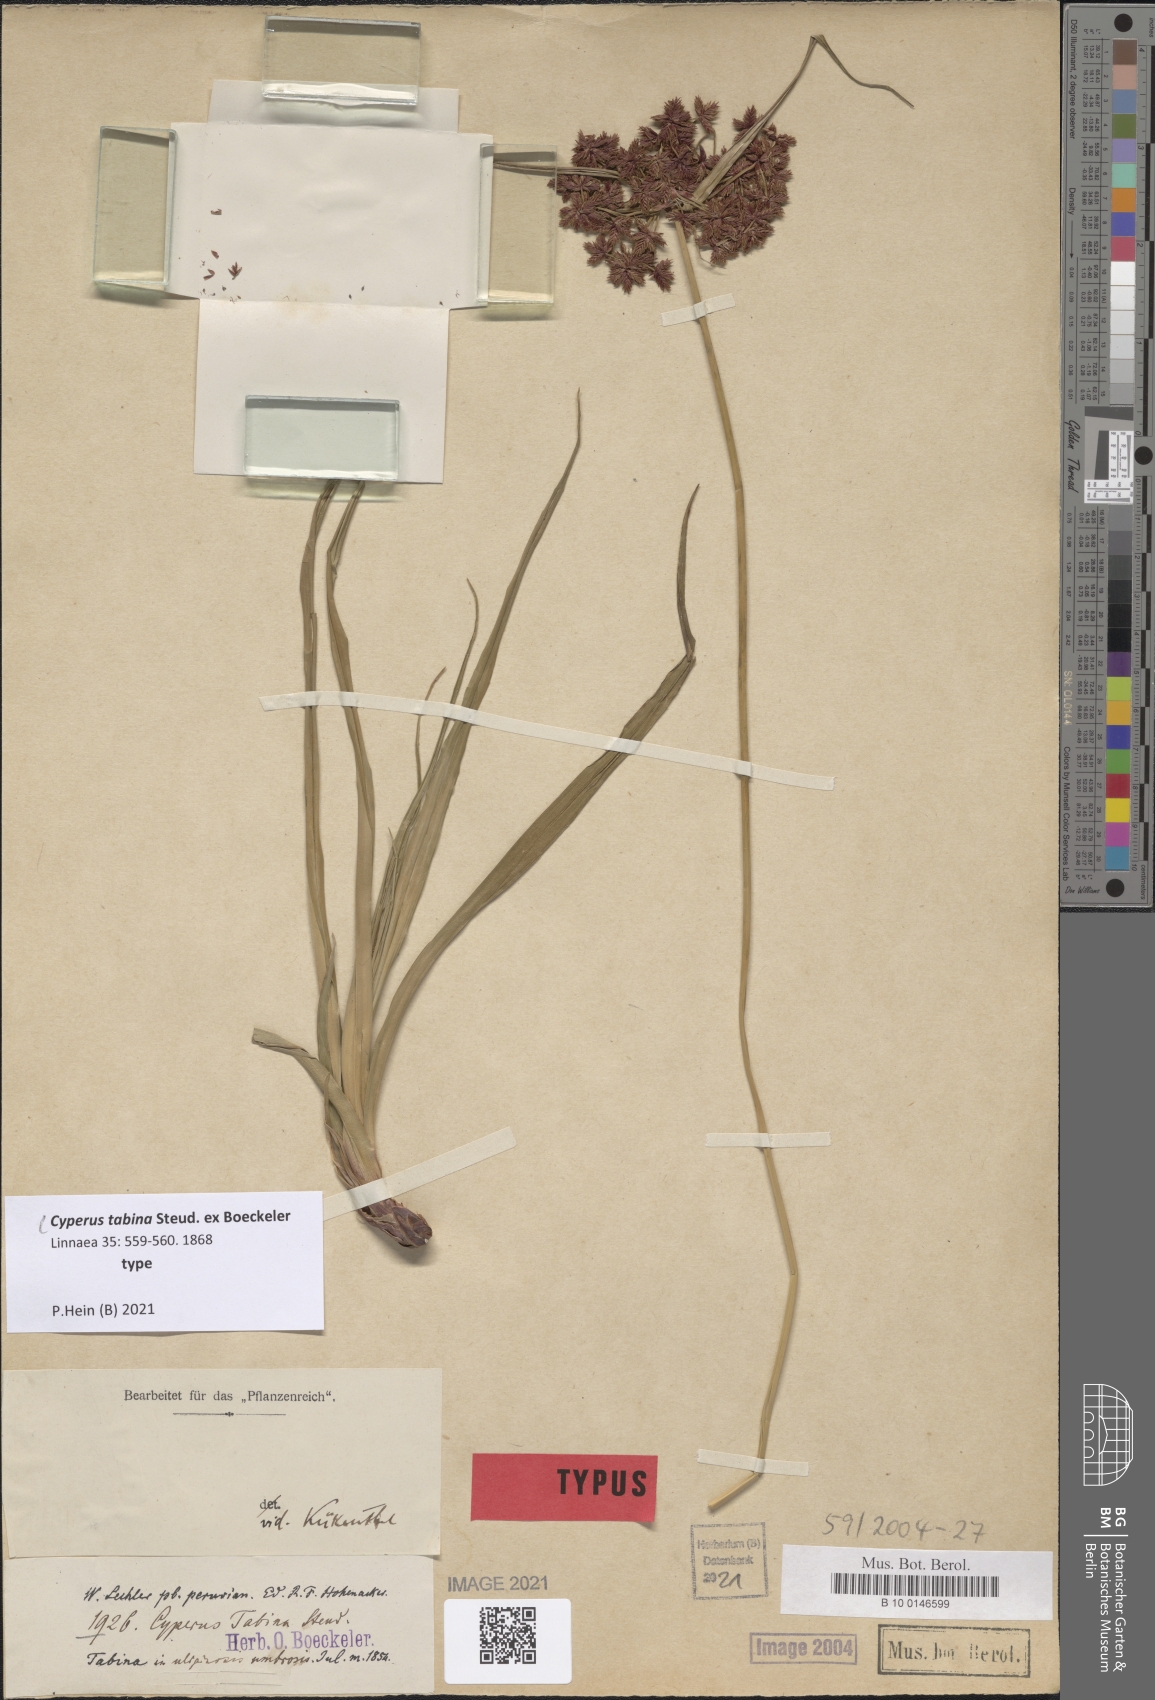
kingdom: Plantae
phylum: Tracheophyta
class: Liliopsida
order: Poales
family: Cyperaceae
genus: Cyperus
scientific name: Cyperus tabina
